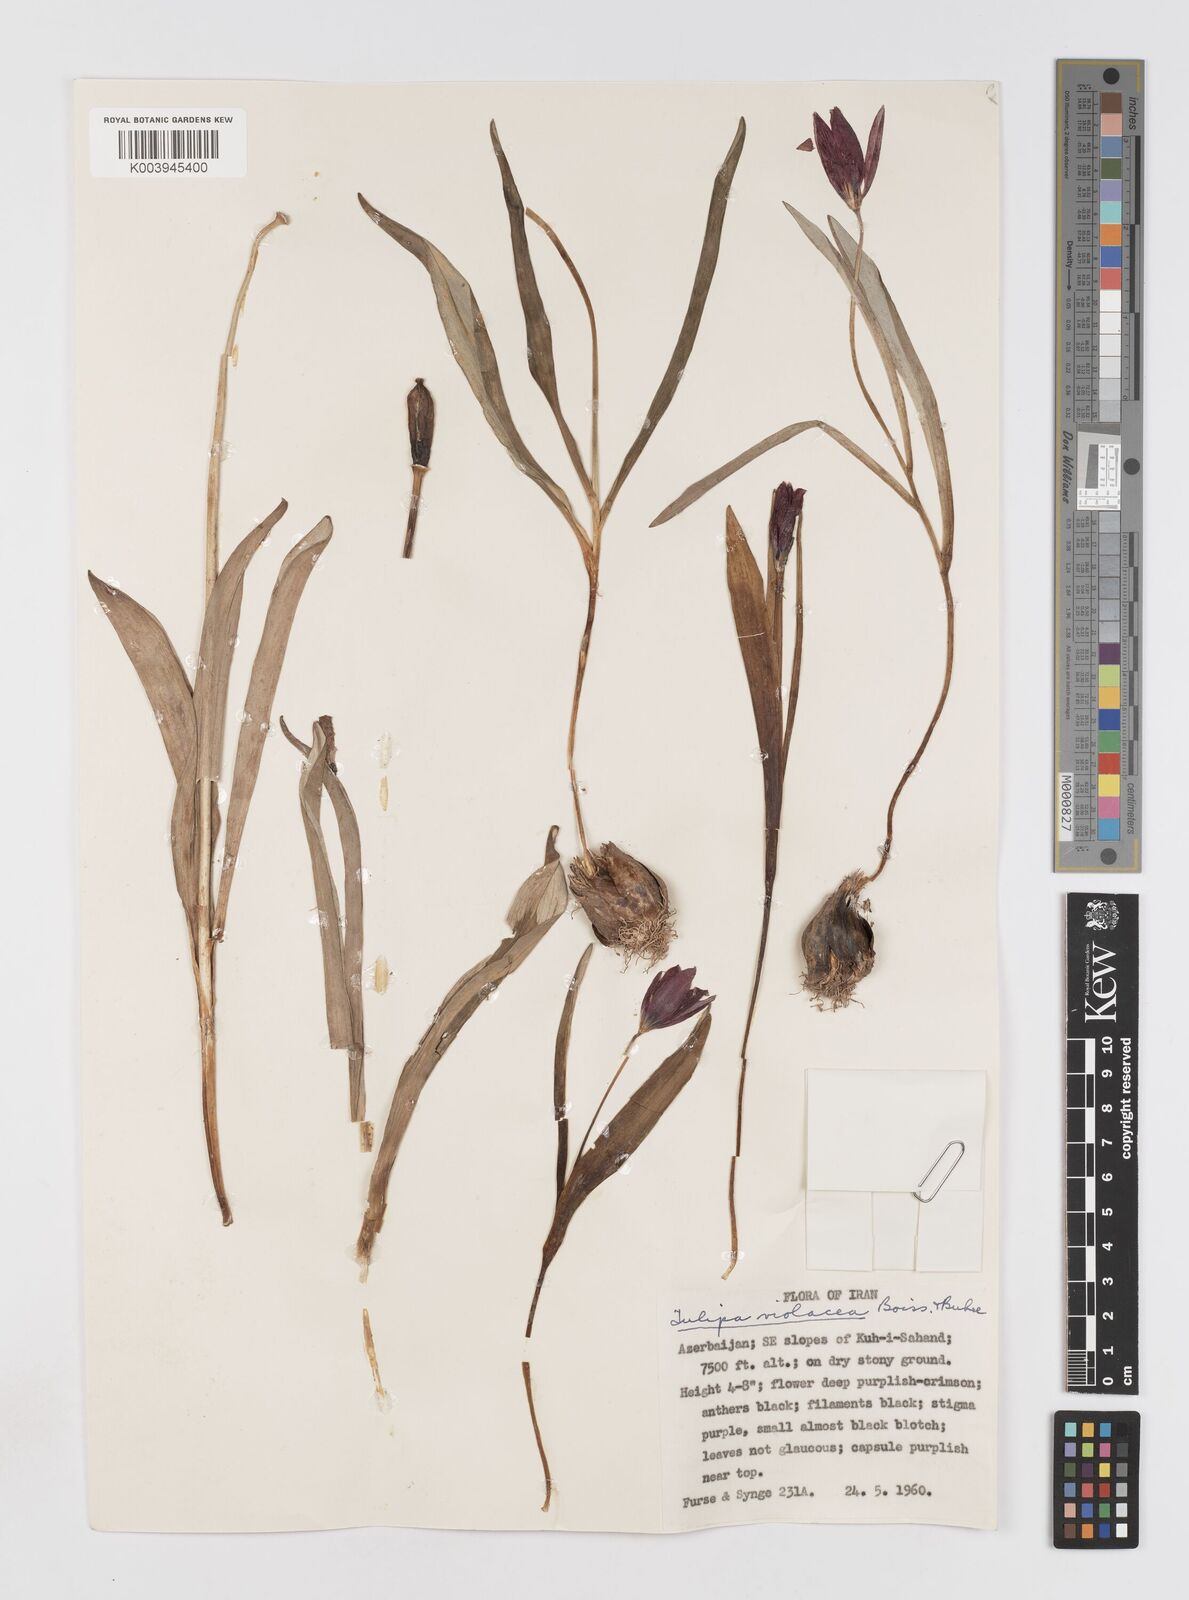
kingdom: Plantae
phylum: Tracheophyta
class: Liliopsida
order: Liliales
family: Liliaceae
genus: Tulipa
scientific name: Tulipa humilis
